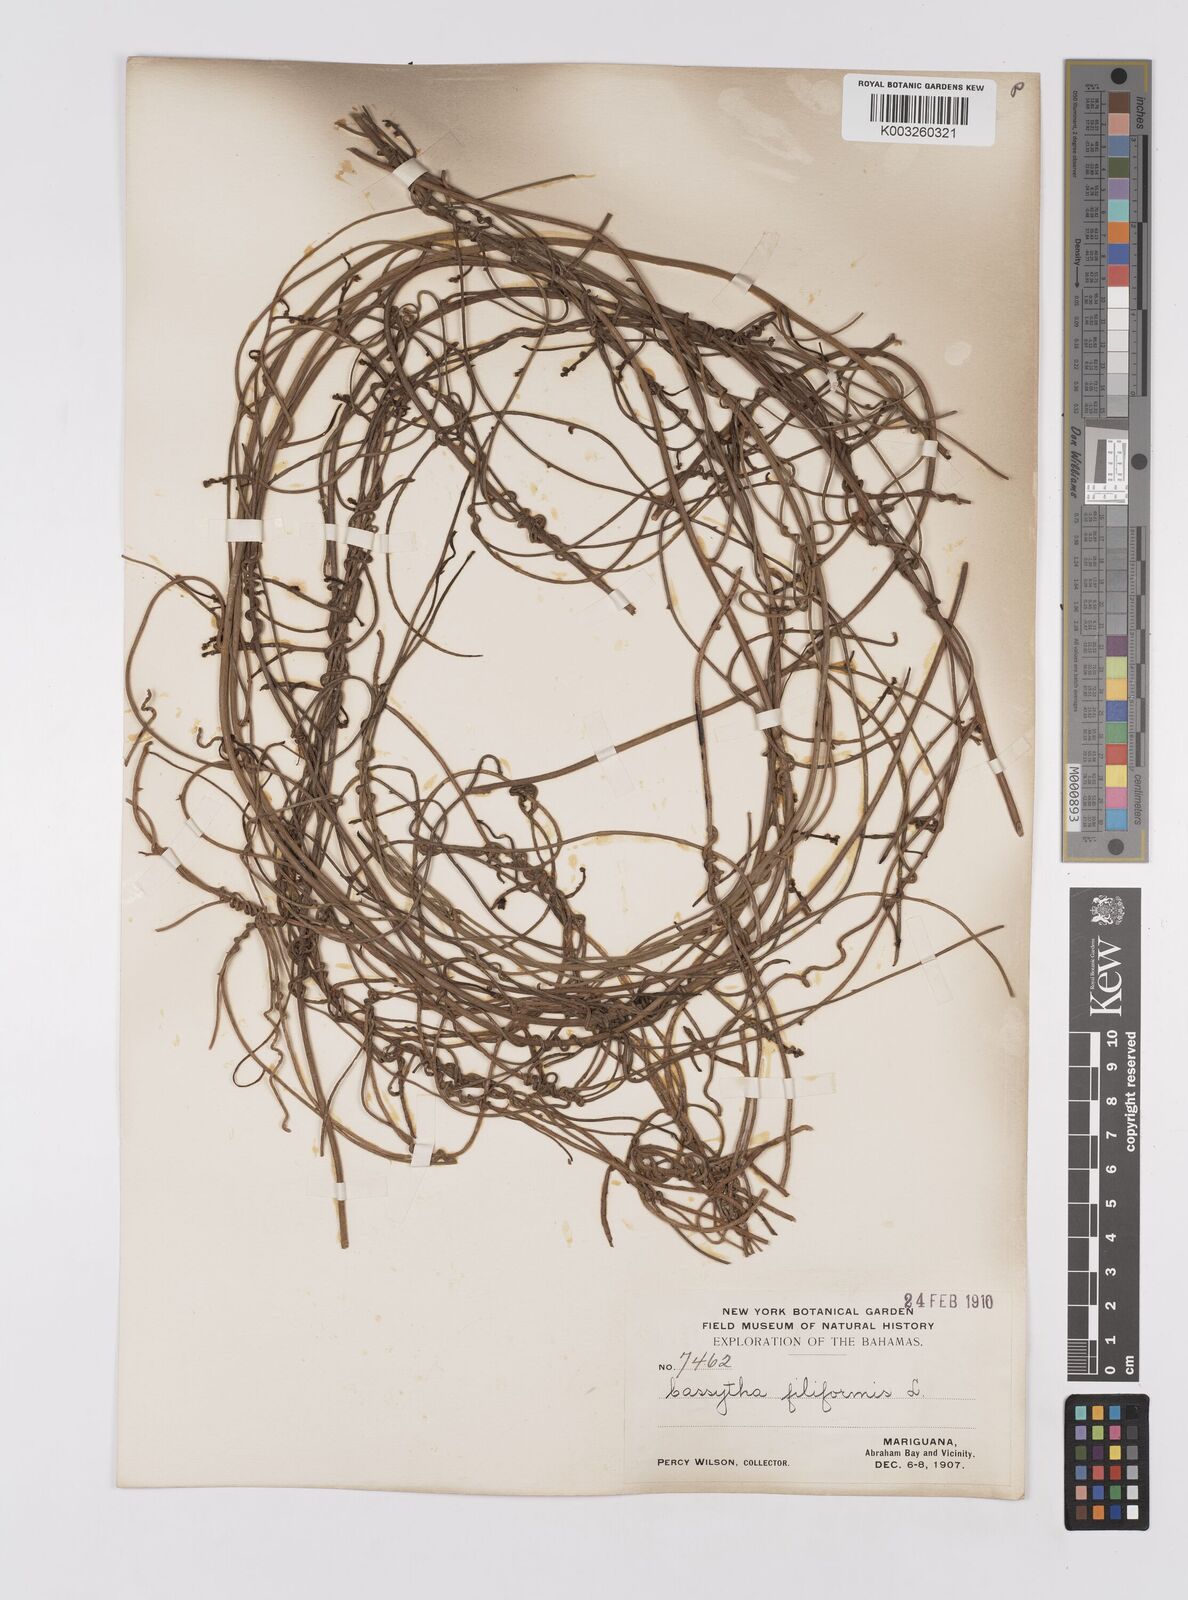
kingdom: Plantae
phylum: Tracheophyta
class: Magnoliopsida
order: Laurales
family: Lauraceae
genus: Cassytha
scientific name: Cassytha filiformis
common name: Dodder-laurel
